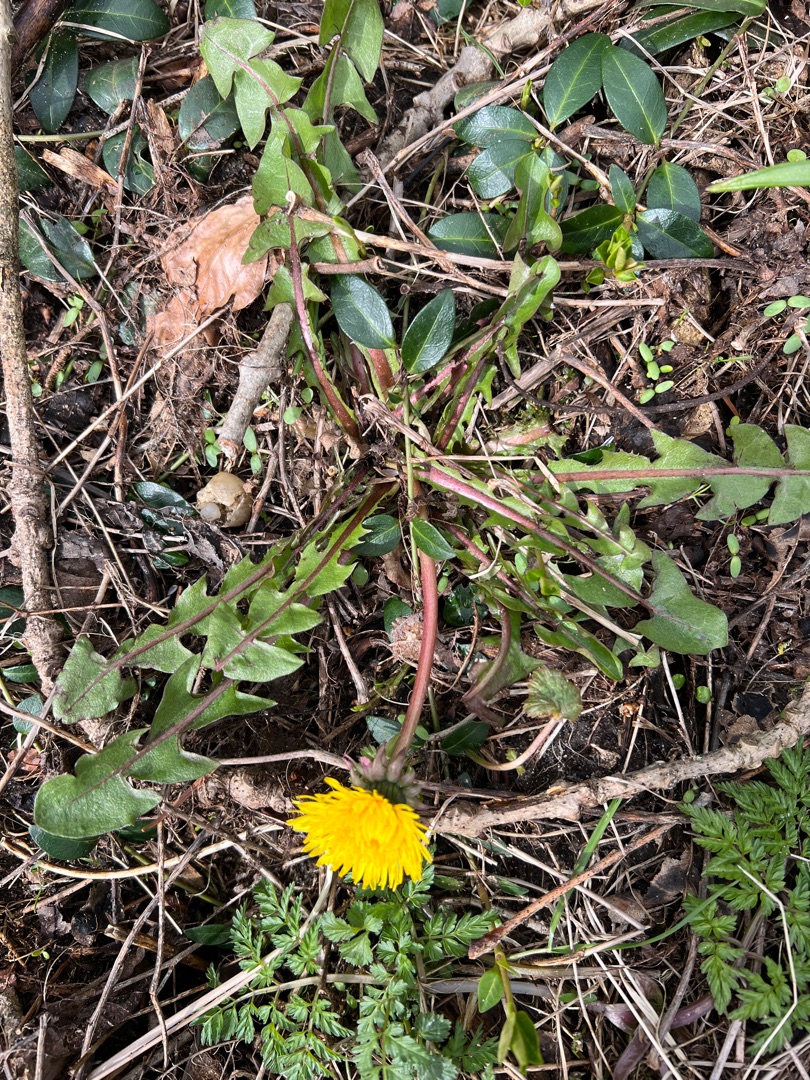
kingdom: Plantae
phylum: Tracheophyta
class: Magnoliopsida
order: Asterales
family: Asteraceae
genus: Taraxacum
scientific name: Taraxacum
